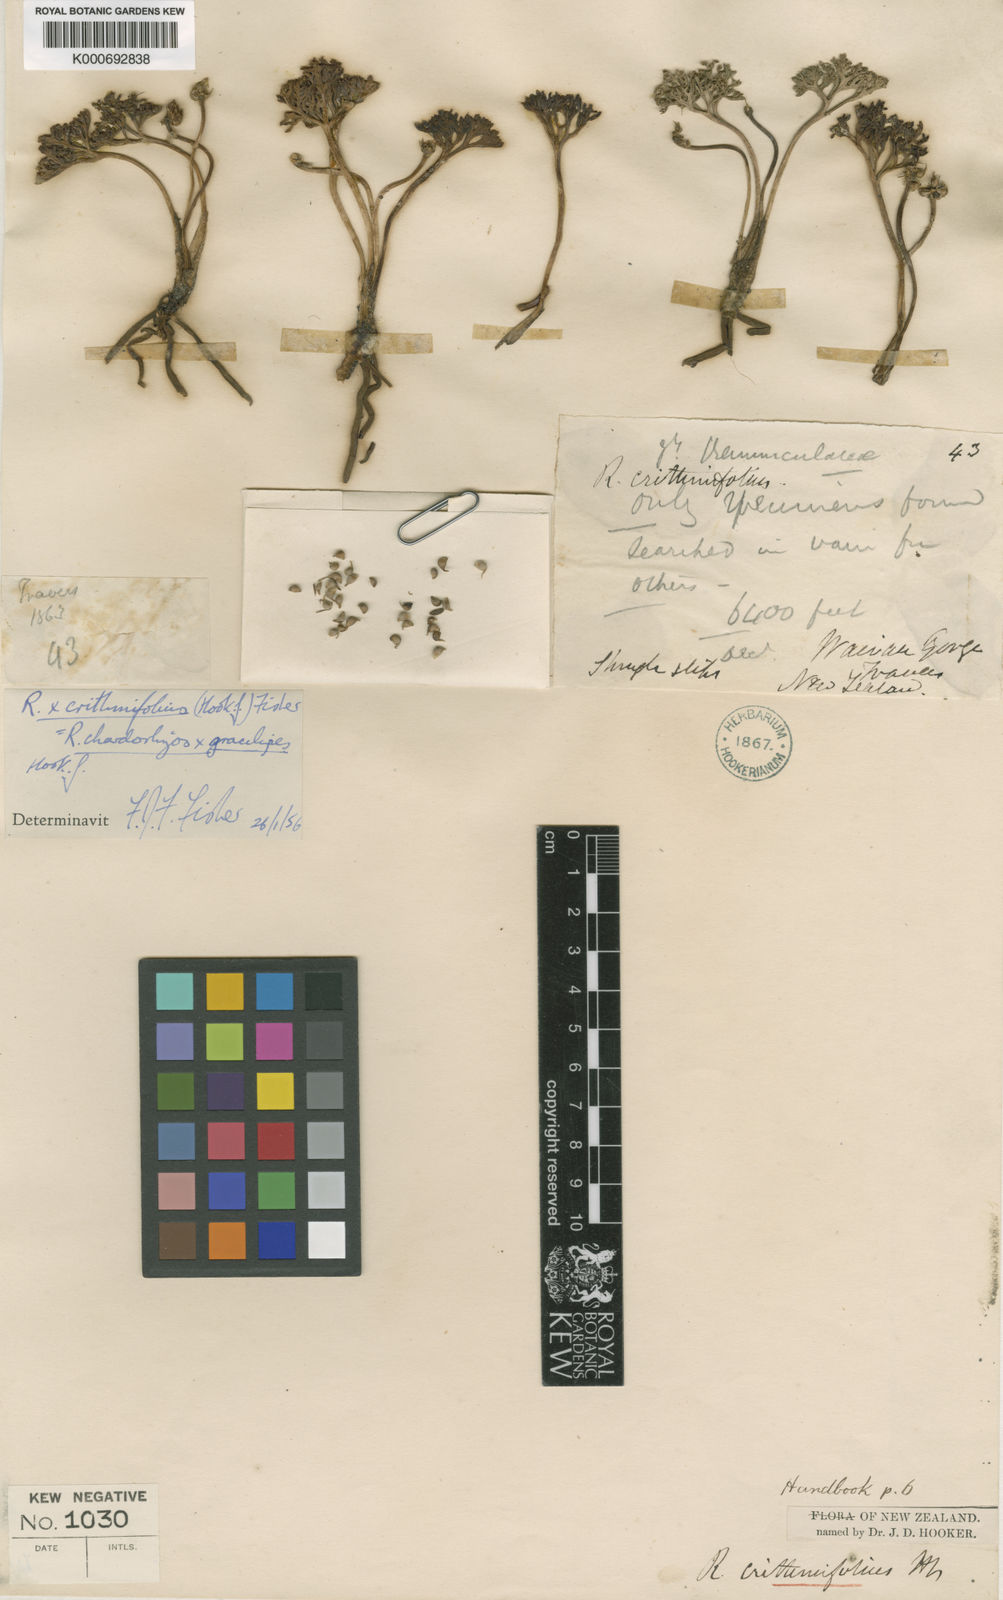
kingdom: Plantae
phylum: Tracheophyta
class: Magnoliopsida
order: Ranunculales
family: Ranunculaceae
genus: Ranunculus
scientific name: Ranunculus
